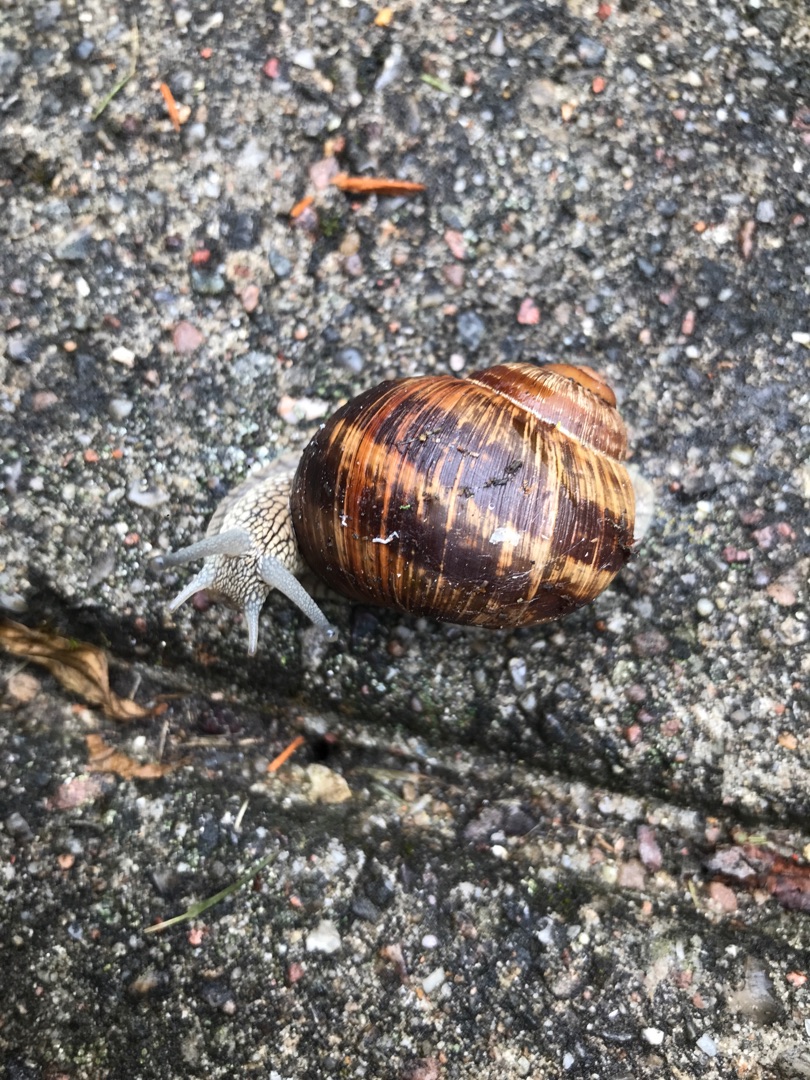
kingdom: Animalia
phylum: Mollusca
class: Gastropoda
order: Stylommatophora
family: Helicidae
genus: Helix
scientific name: Helix pomatia
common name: Vinbjergsnegl
